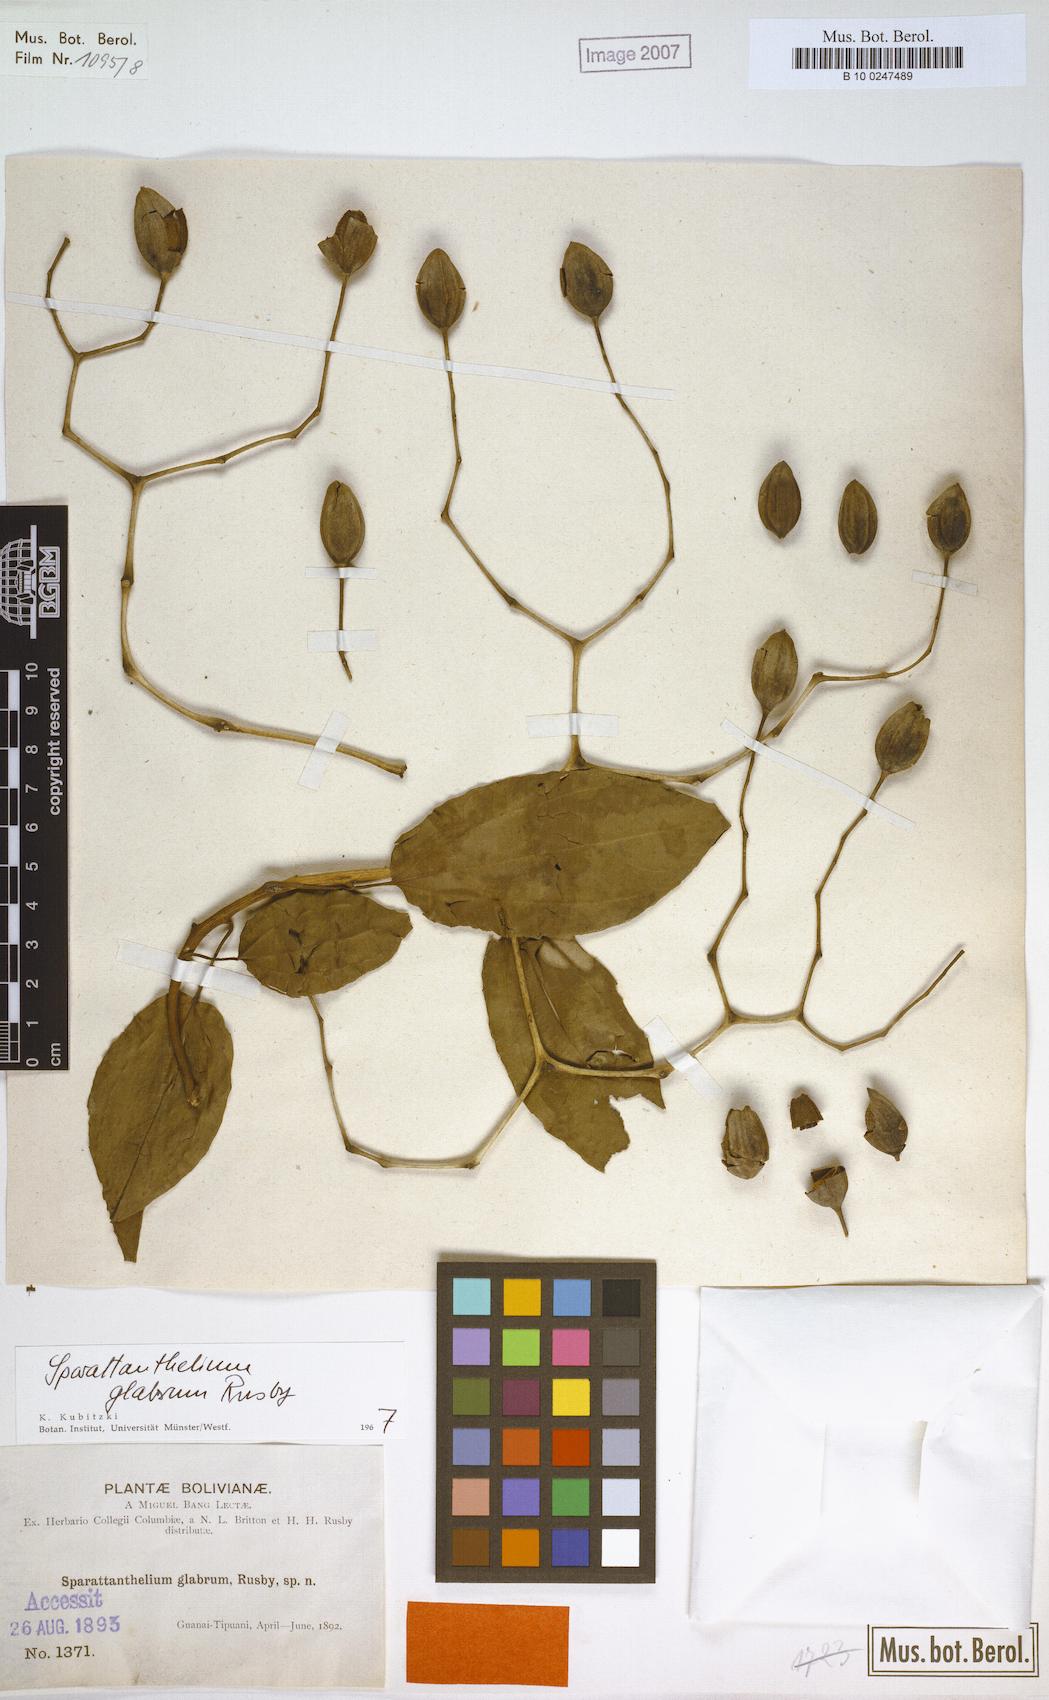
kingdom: Plantae
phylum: Tracheophyta
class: Magnoliopsida
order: Laurales
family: Hernandiaceae
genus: Sparattanthelium
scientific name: Sparattanthelium glabrum
